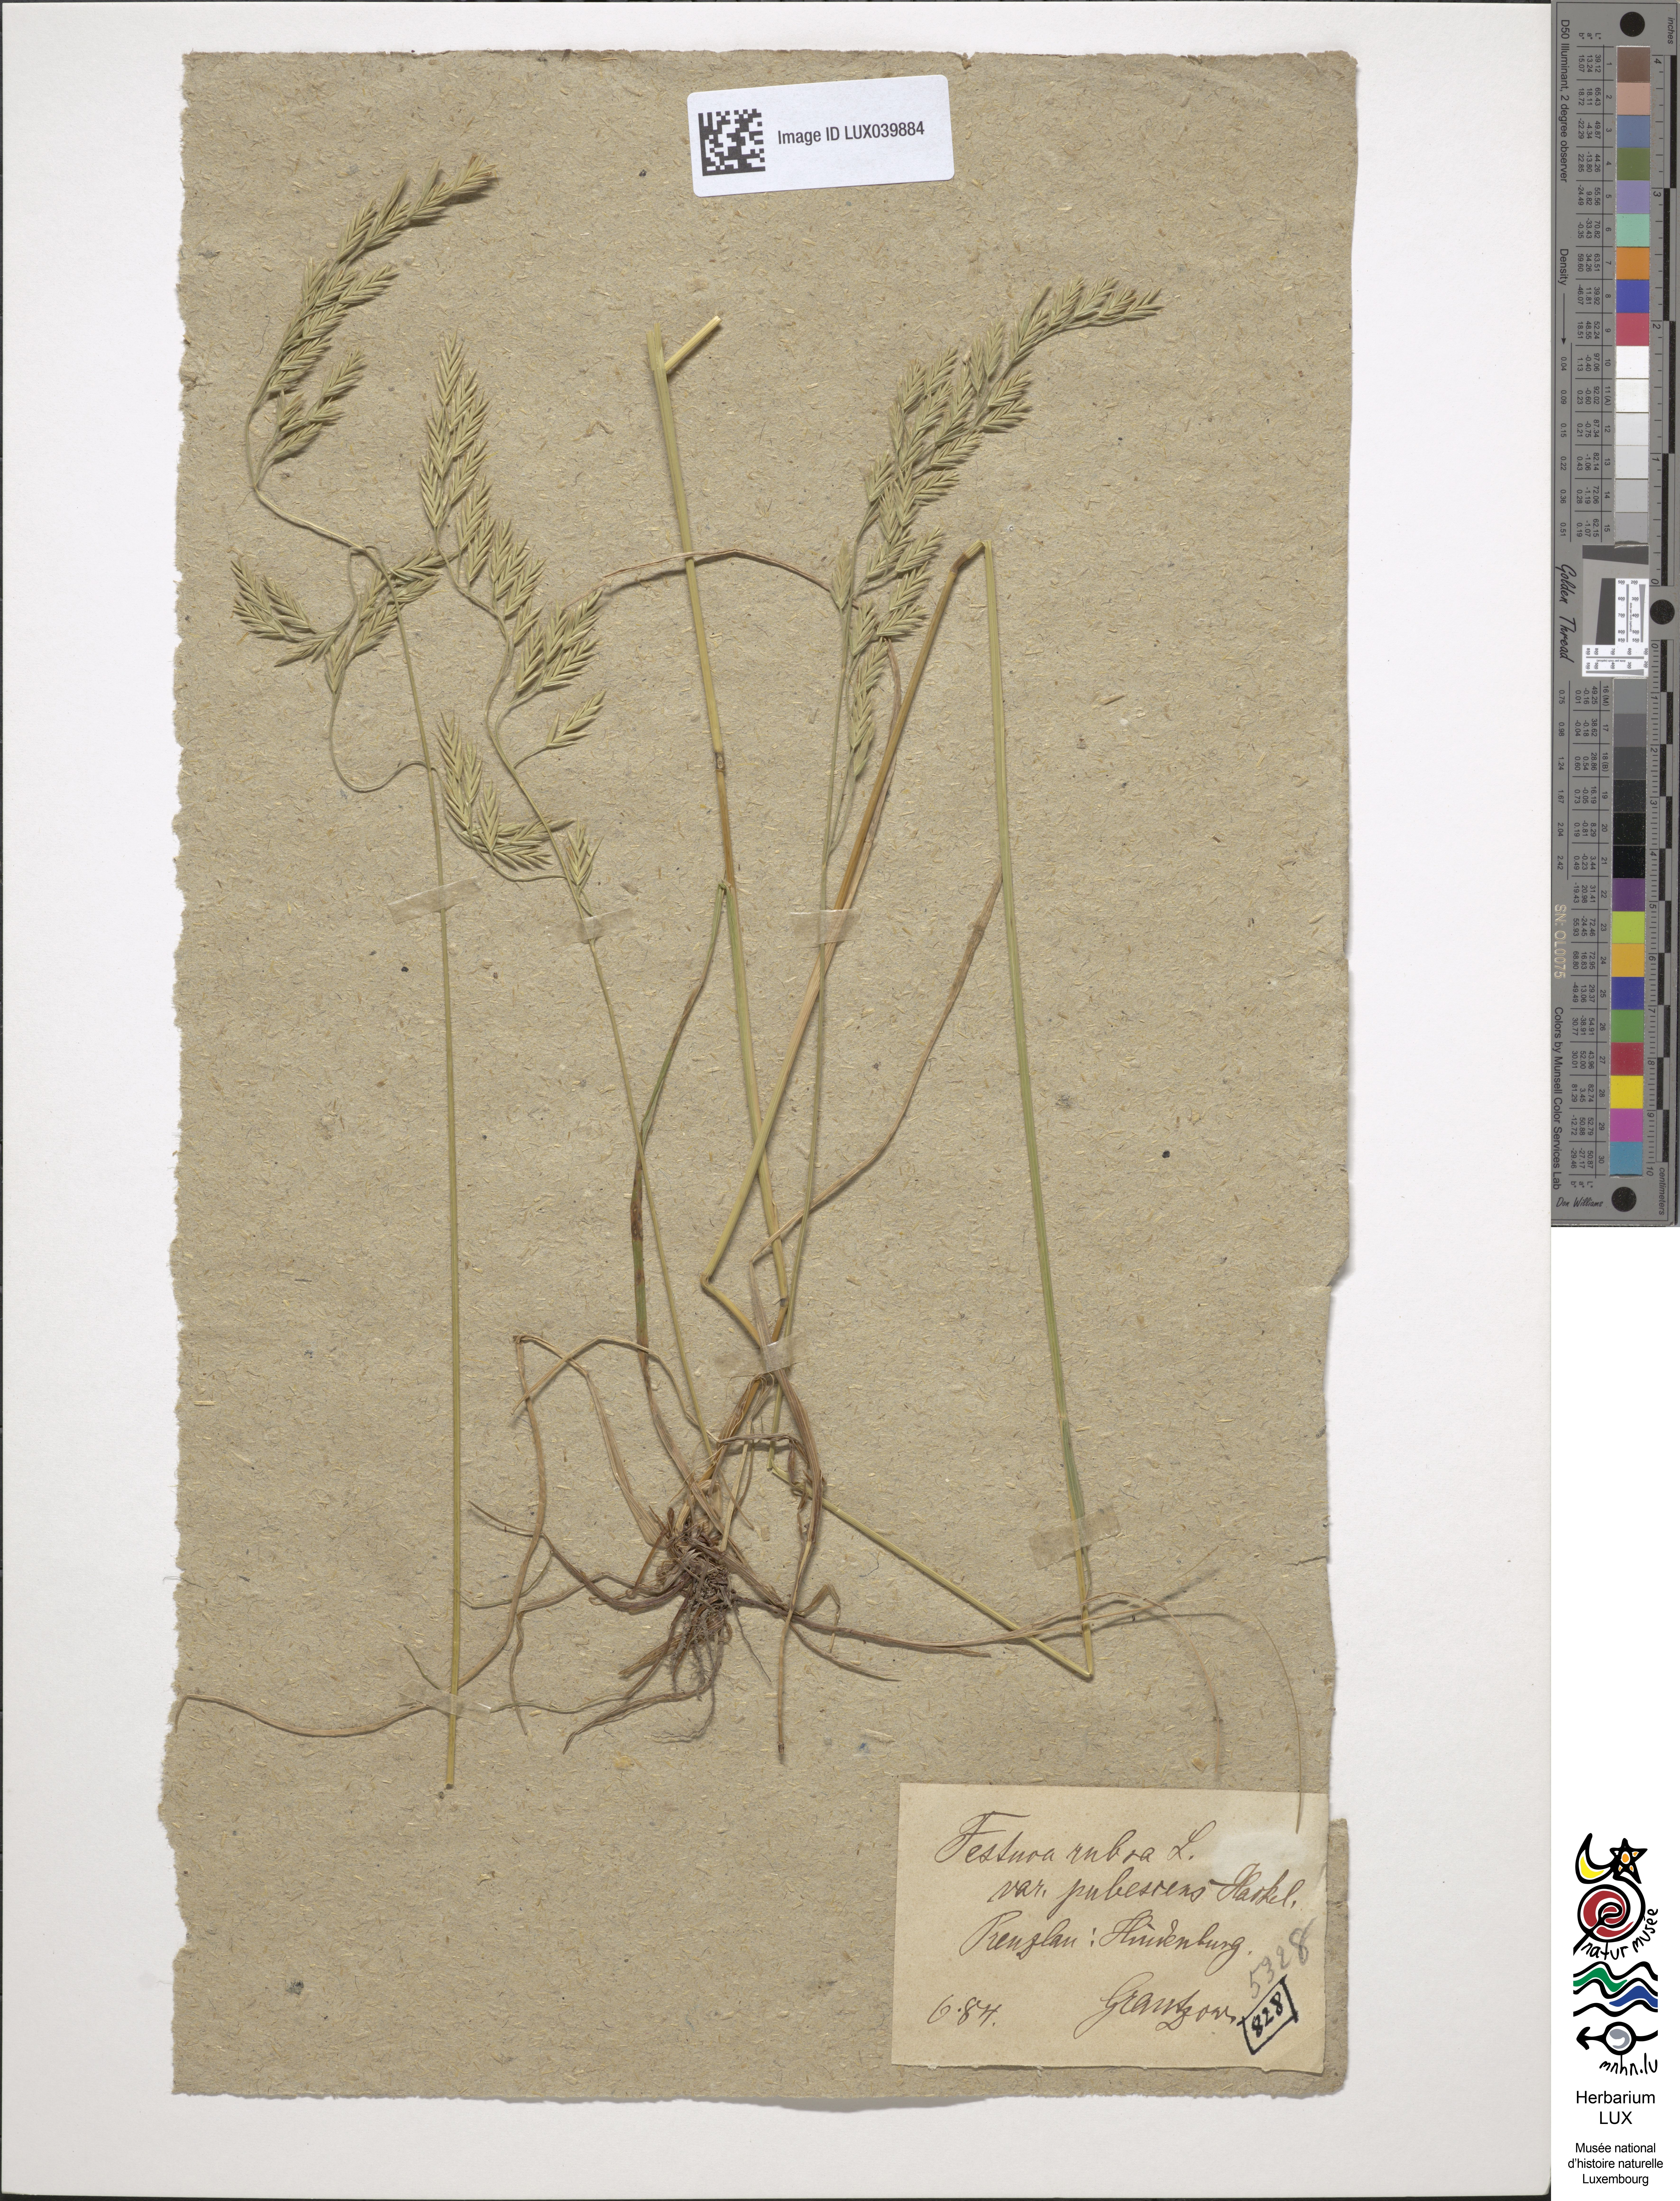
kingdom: Plantae
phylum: Tracheophyta
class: Liliopsida
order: Poales
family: Poaceae
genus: Festuca
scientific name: Festuca rubra
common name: Red fescue
